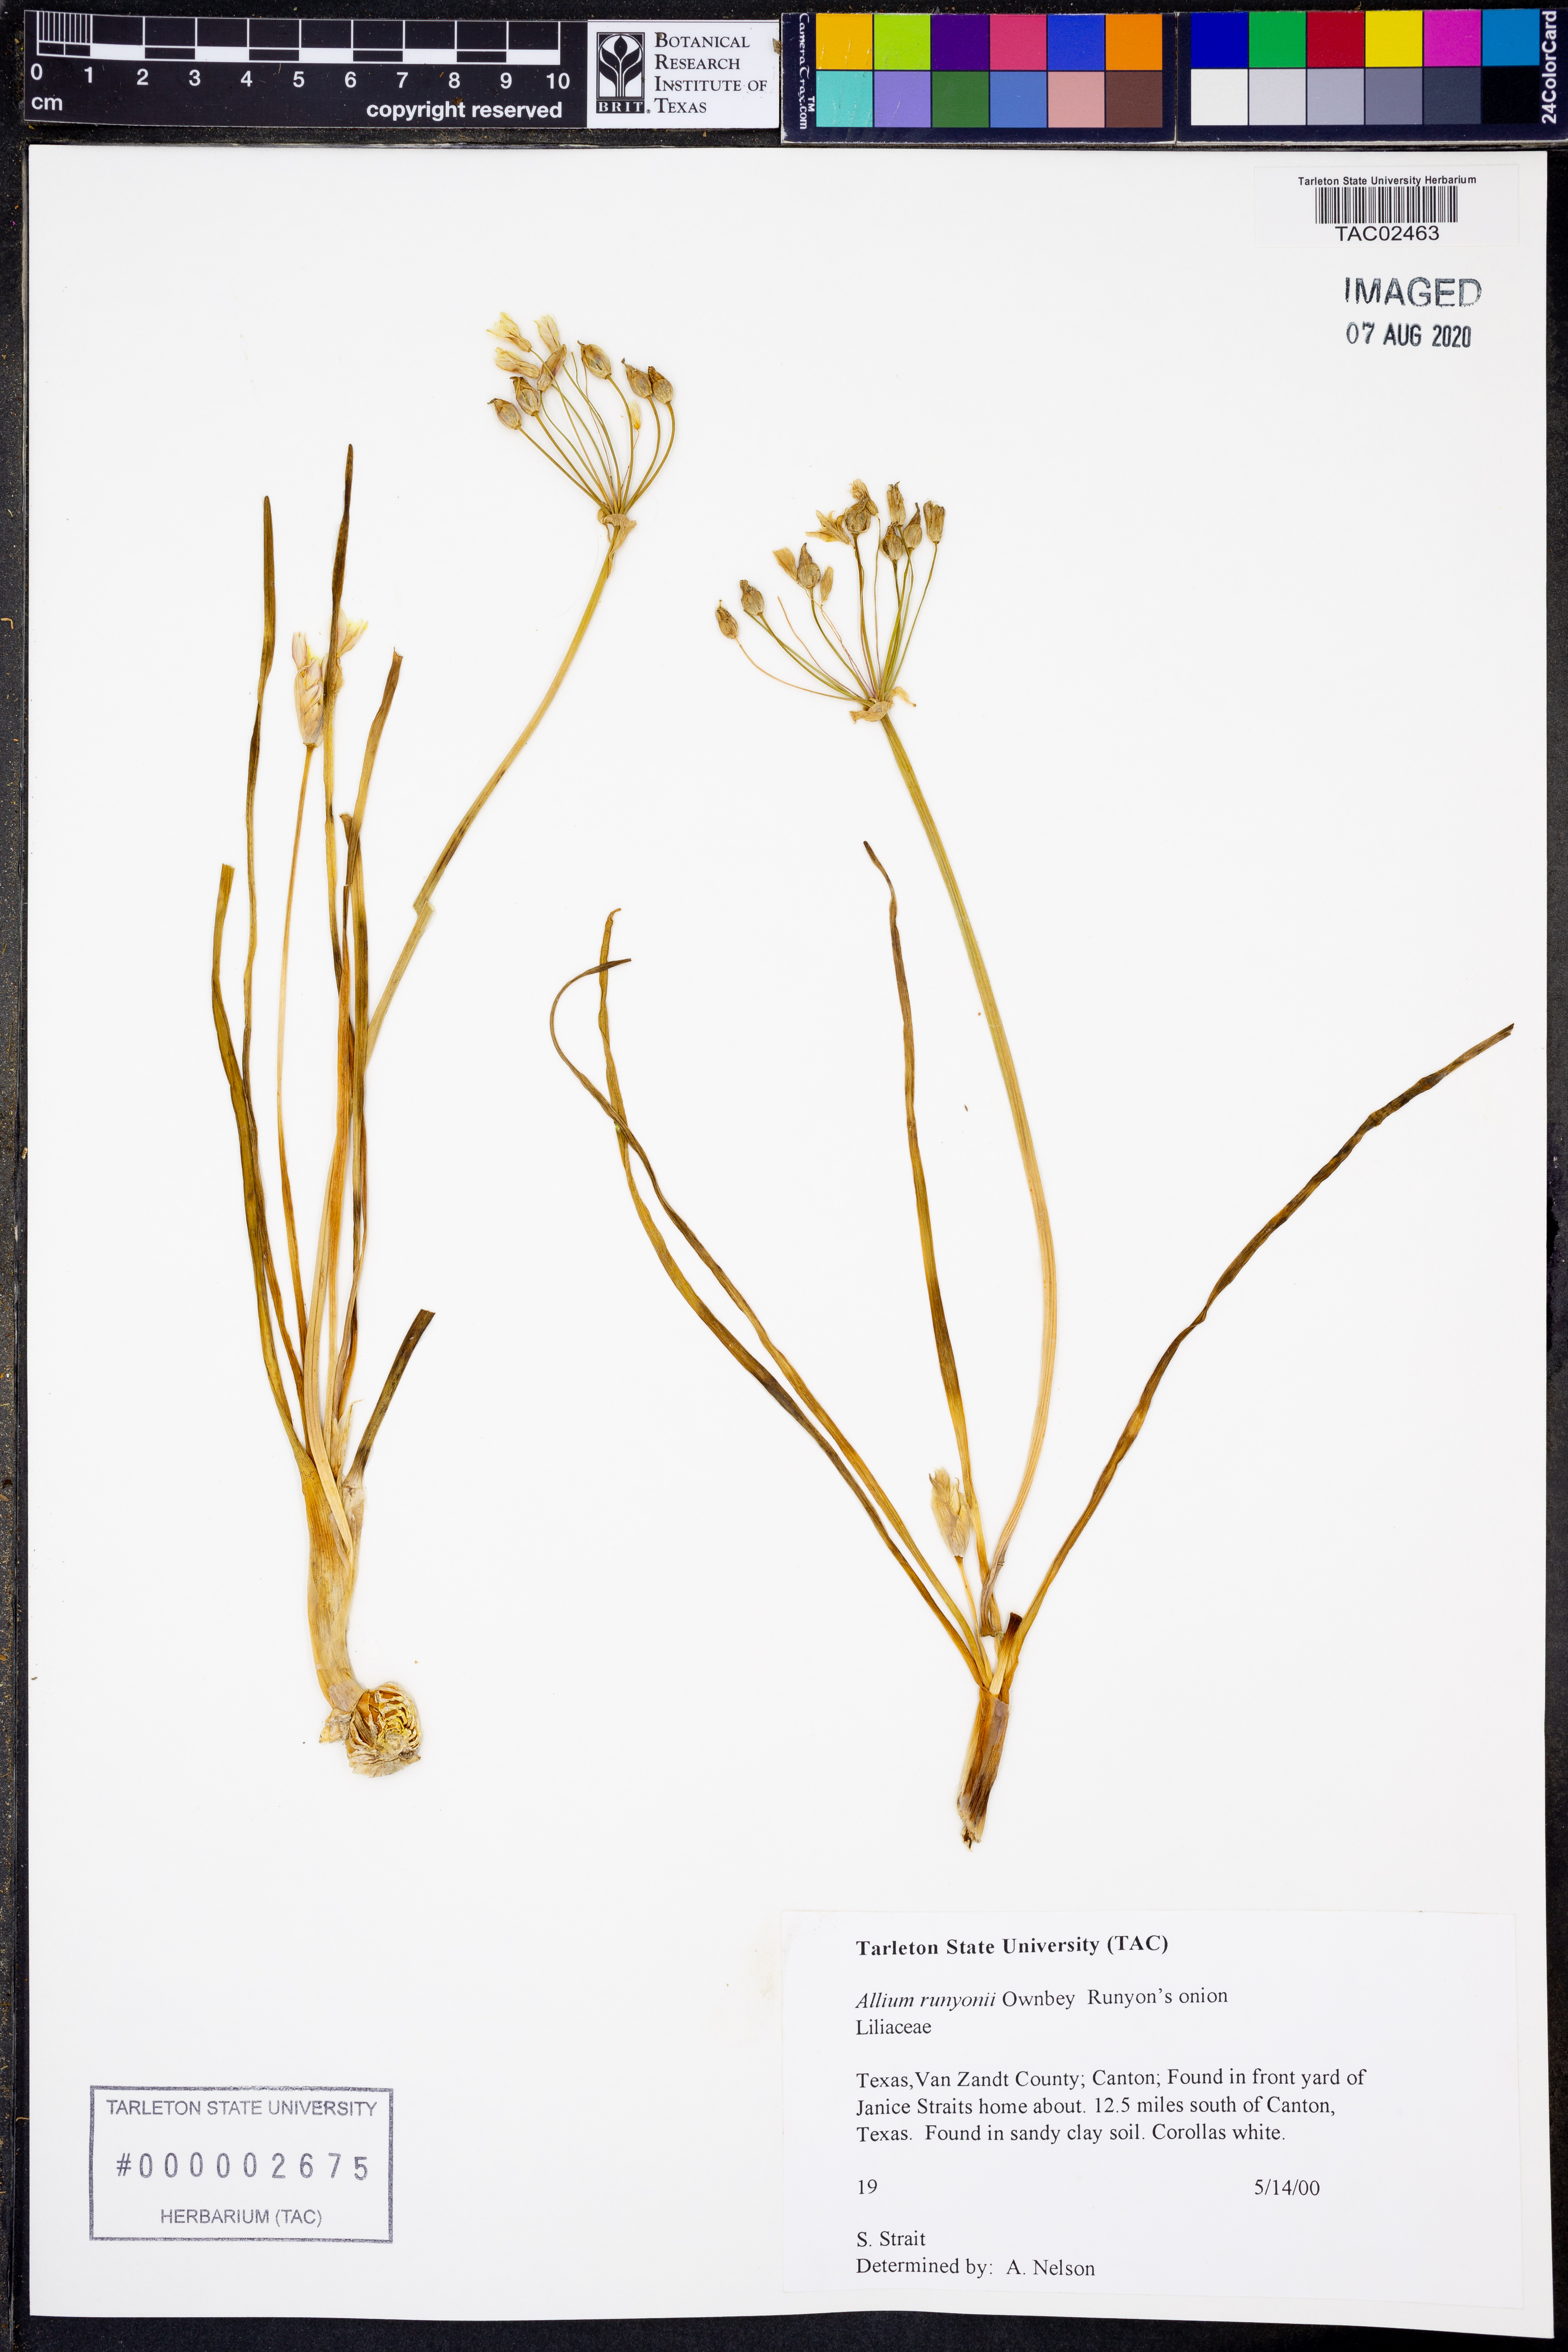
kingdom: Plantae
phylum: Tracheophyta
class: Liliopsida
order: Asparagales
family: Amaryllidaceae
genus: Allium
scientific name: Allium runyonii
